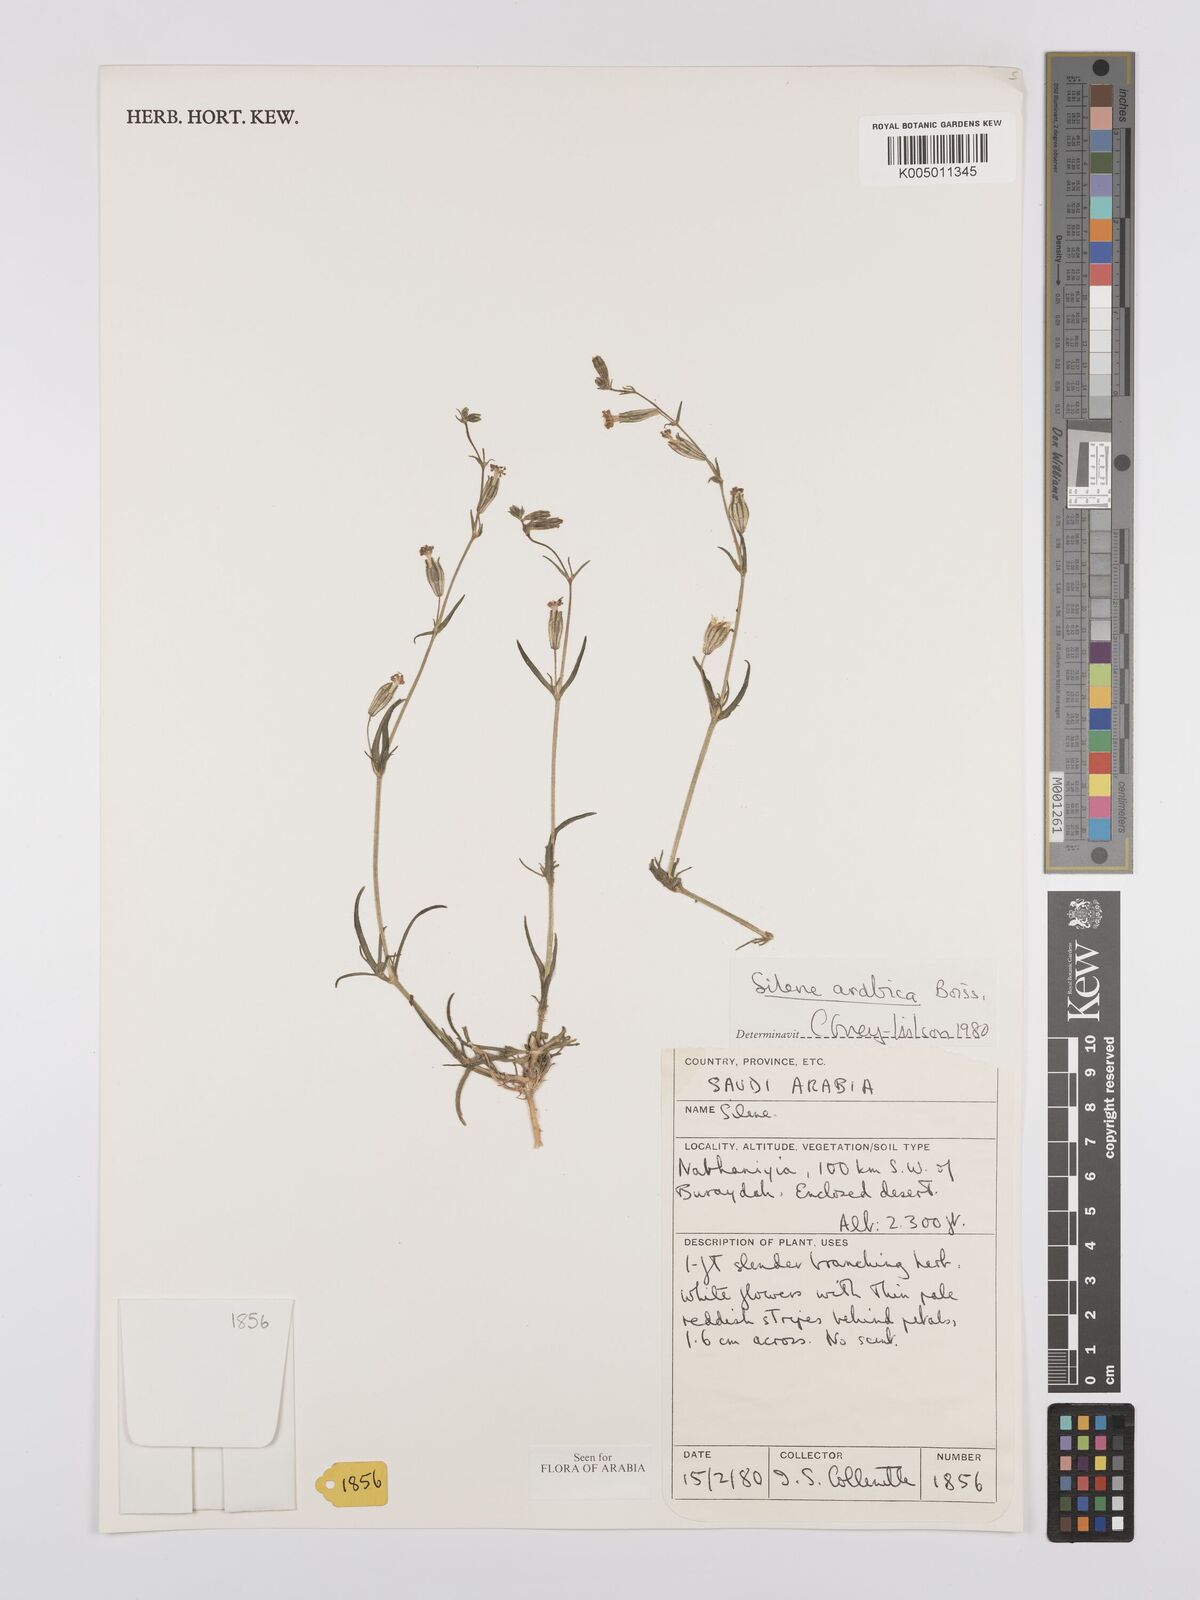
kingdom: Plantae
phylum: Tracheophyta
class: Magnoliopsida
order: Caryophyllales
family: Caryophyllaceae
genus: Silene
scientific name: Silene arabica
